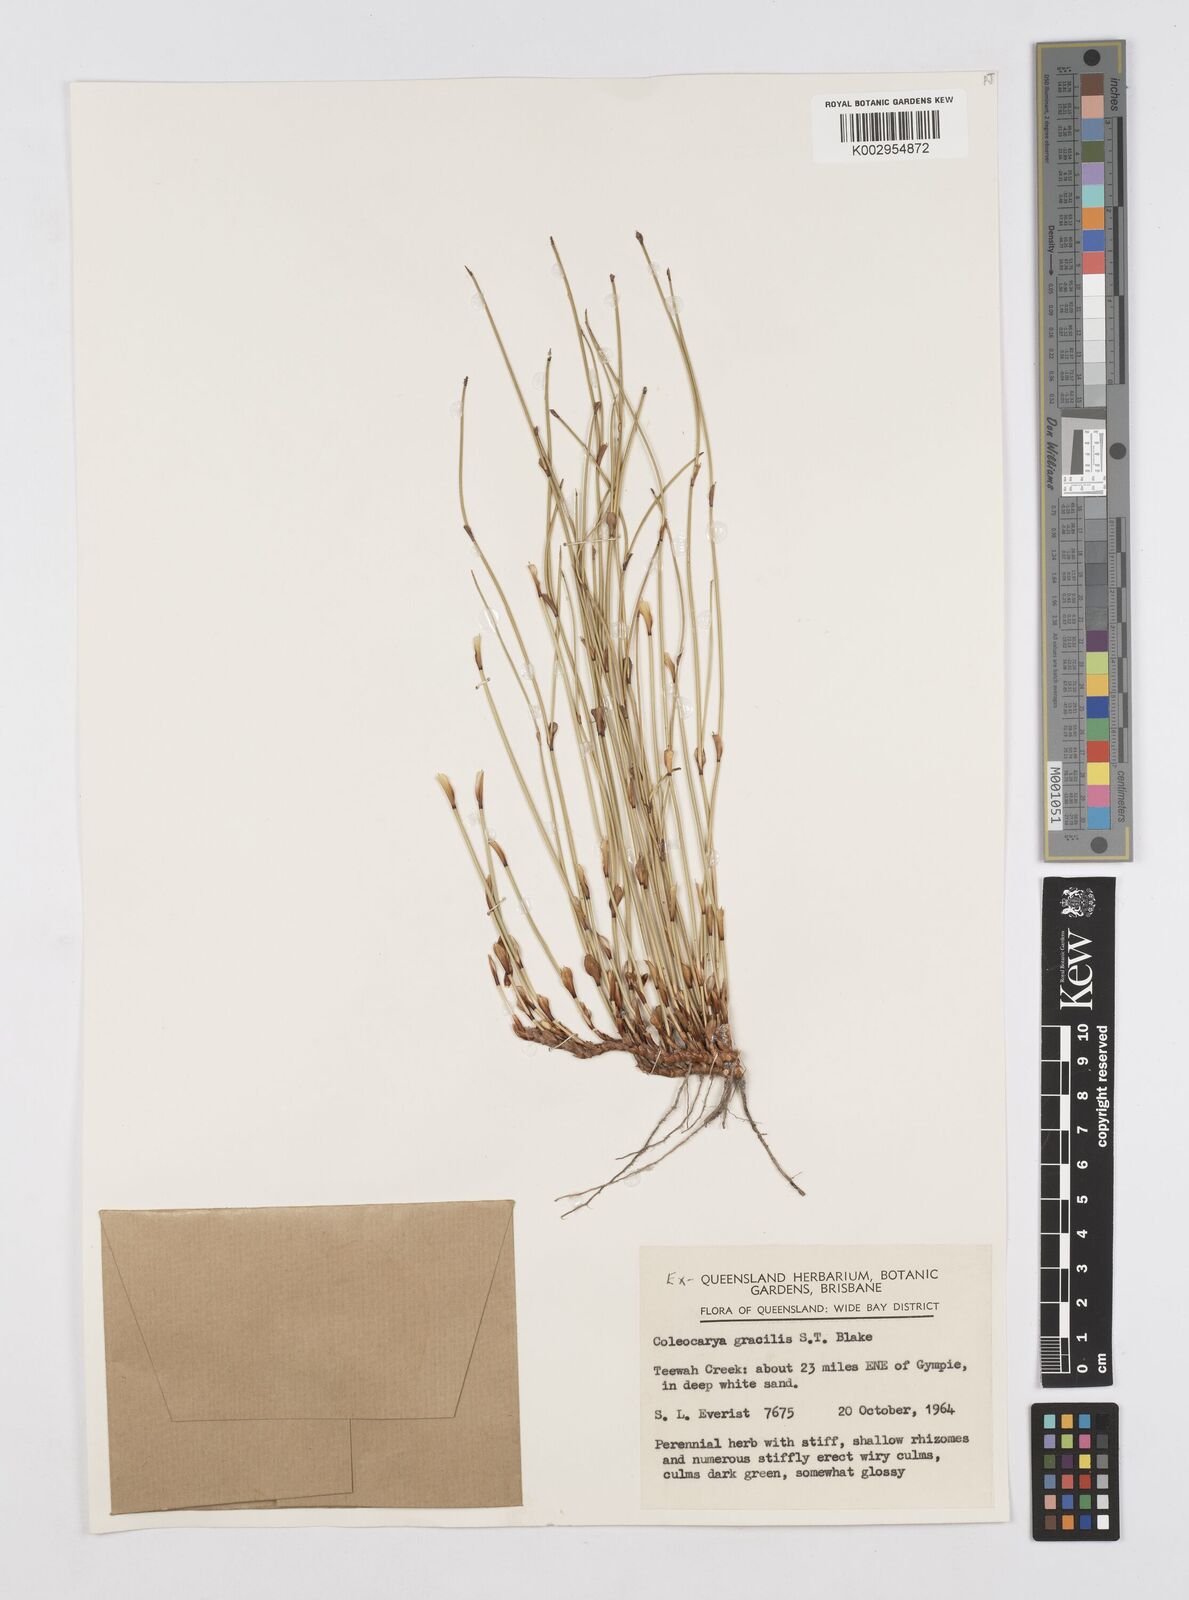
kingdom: Plantae
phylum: Tracheophyta
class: Liliopsida
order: Poales
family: Restionaceae
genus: Coleocarya
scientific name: Coleocarya gracilis
